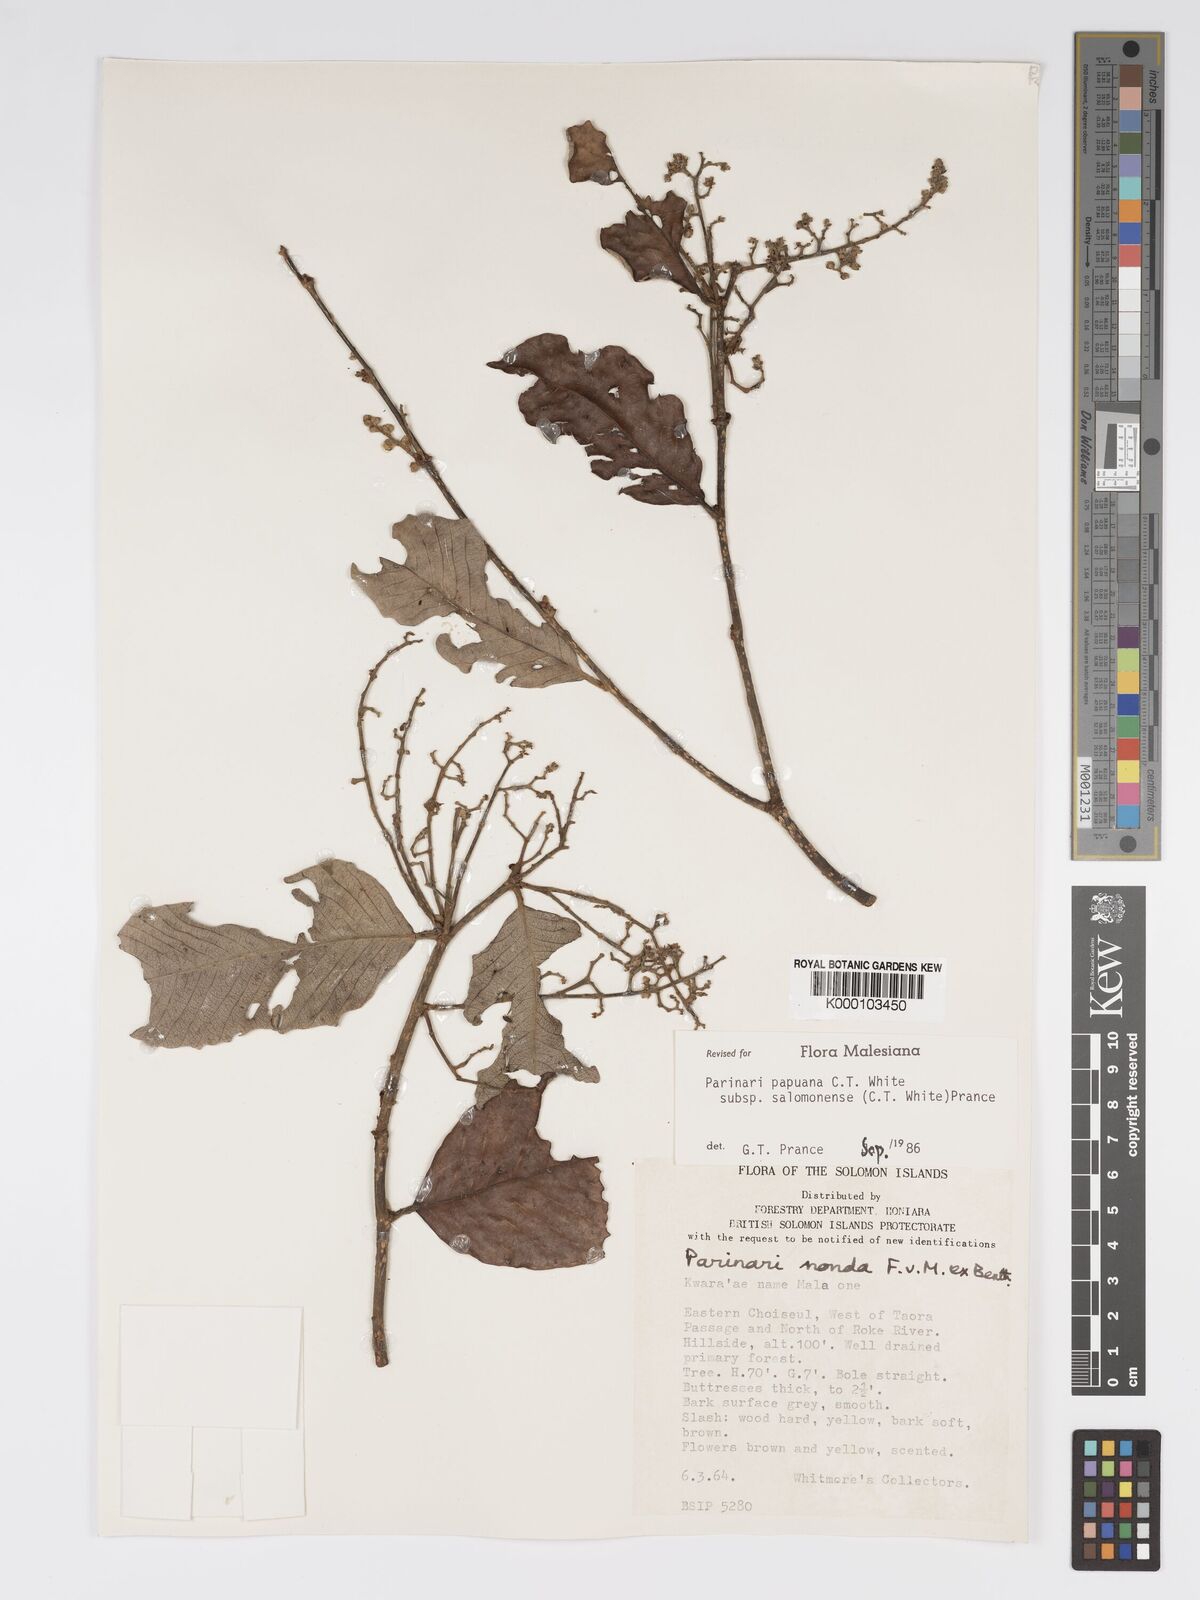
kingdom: Plantae
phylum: Tracheophyta
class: Magnoliopsida
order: Malpighiales
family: Chrysobalanaceae
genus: Parinari
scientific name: Parinari papuana
